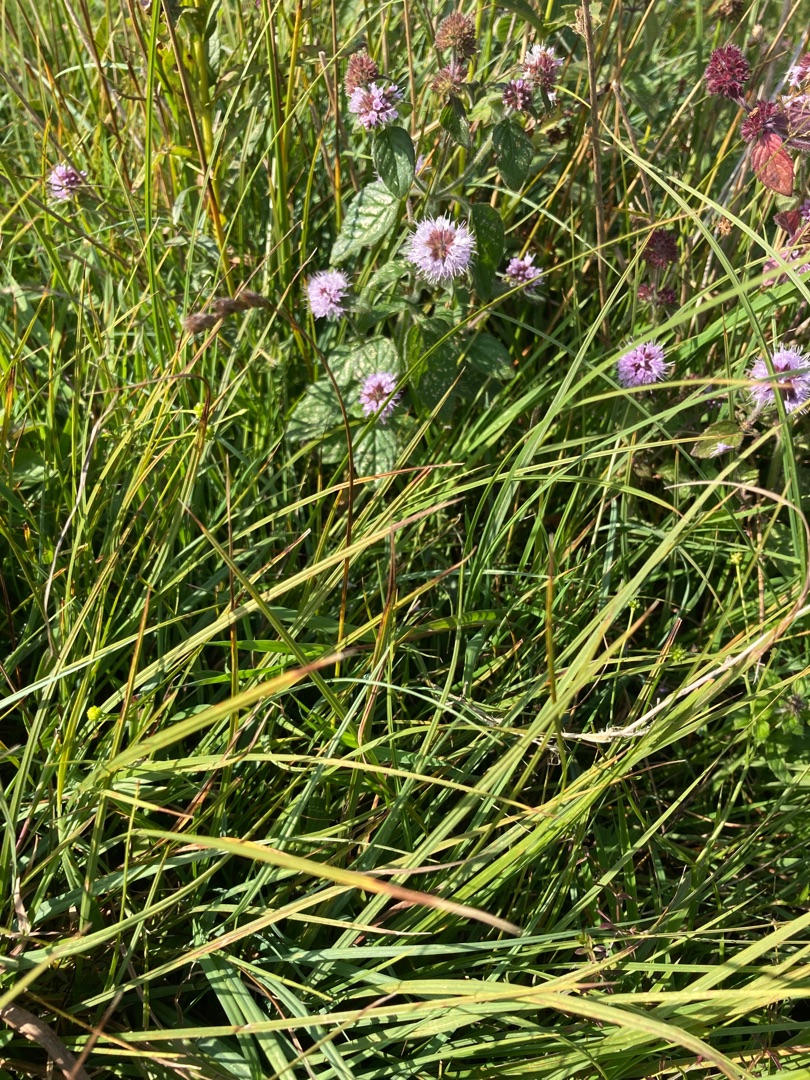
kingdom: Plantae
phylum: Tracheophyta
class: Liliopsida
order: Poales
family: Cyperaceae
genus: Carex
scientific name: Carex leporina
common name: Hare-star
